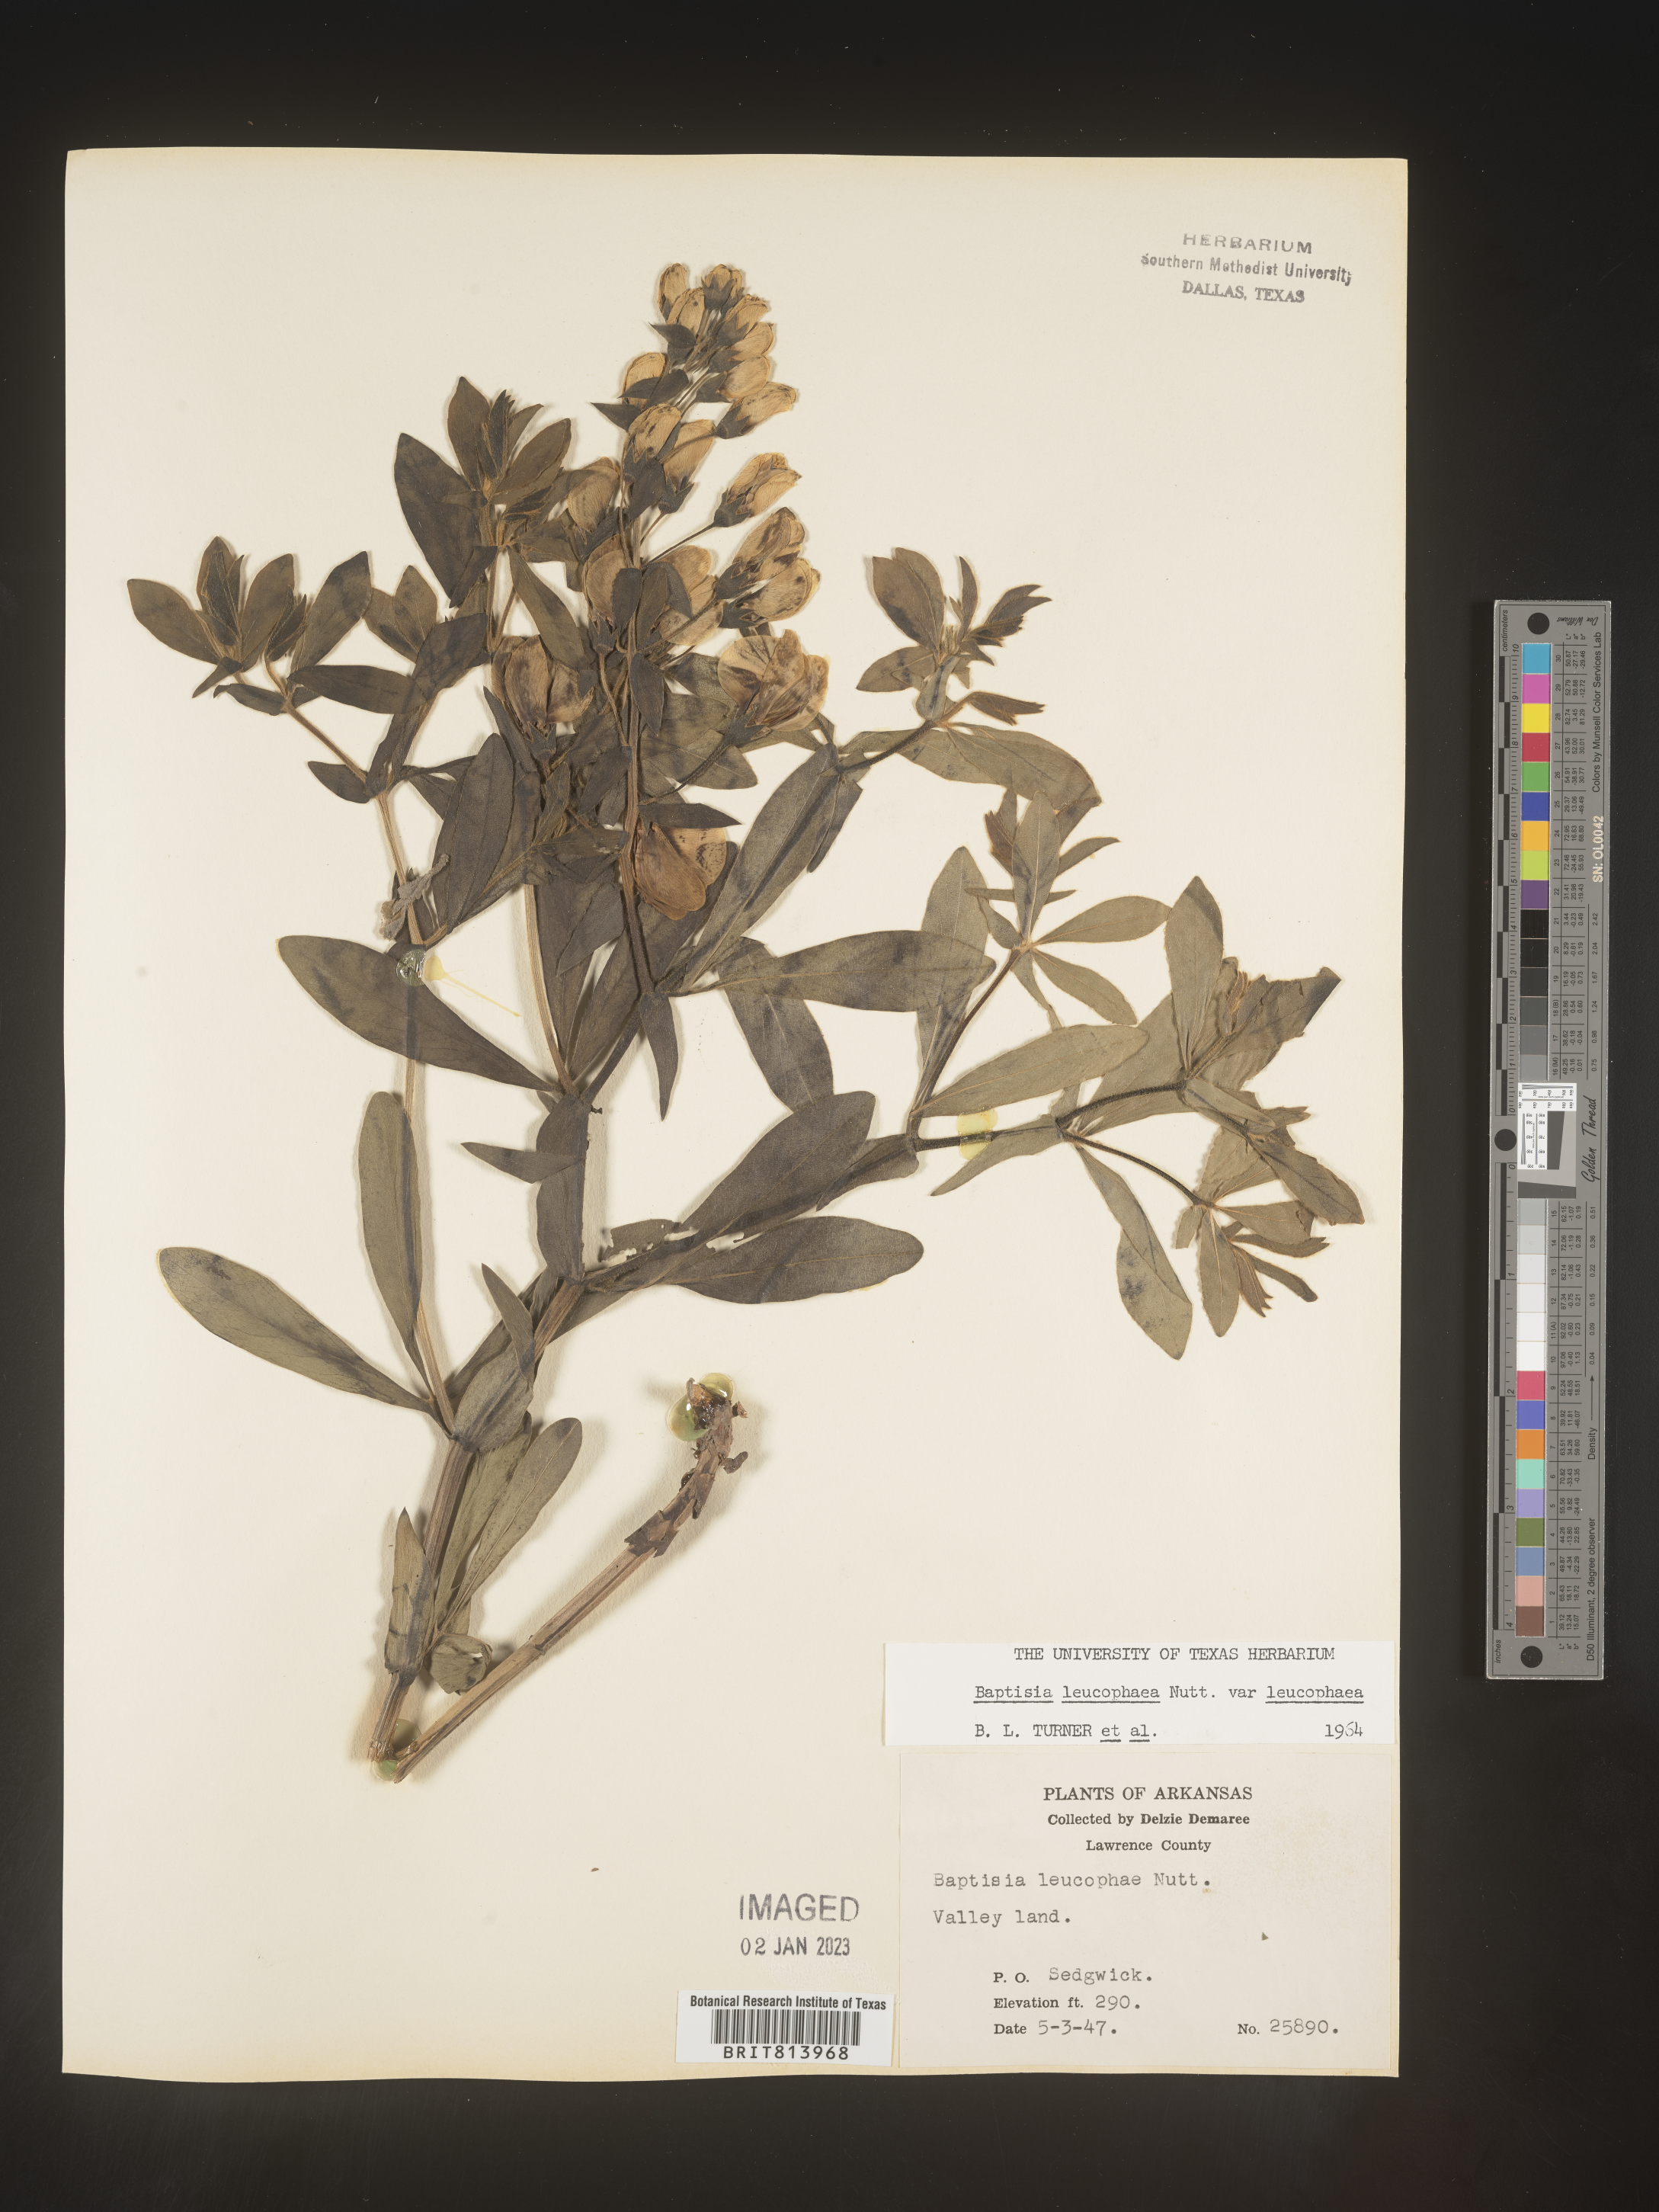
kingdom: Plantae
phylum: Tracheophyta
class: Magnoliopsida
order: Fabales
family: Fabaceae
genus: Baptisia
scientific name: Baptisia bracteata
